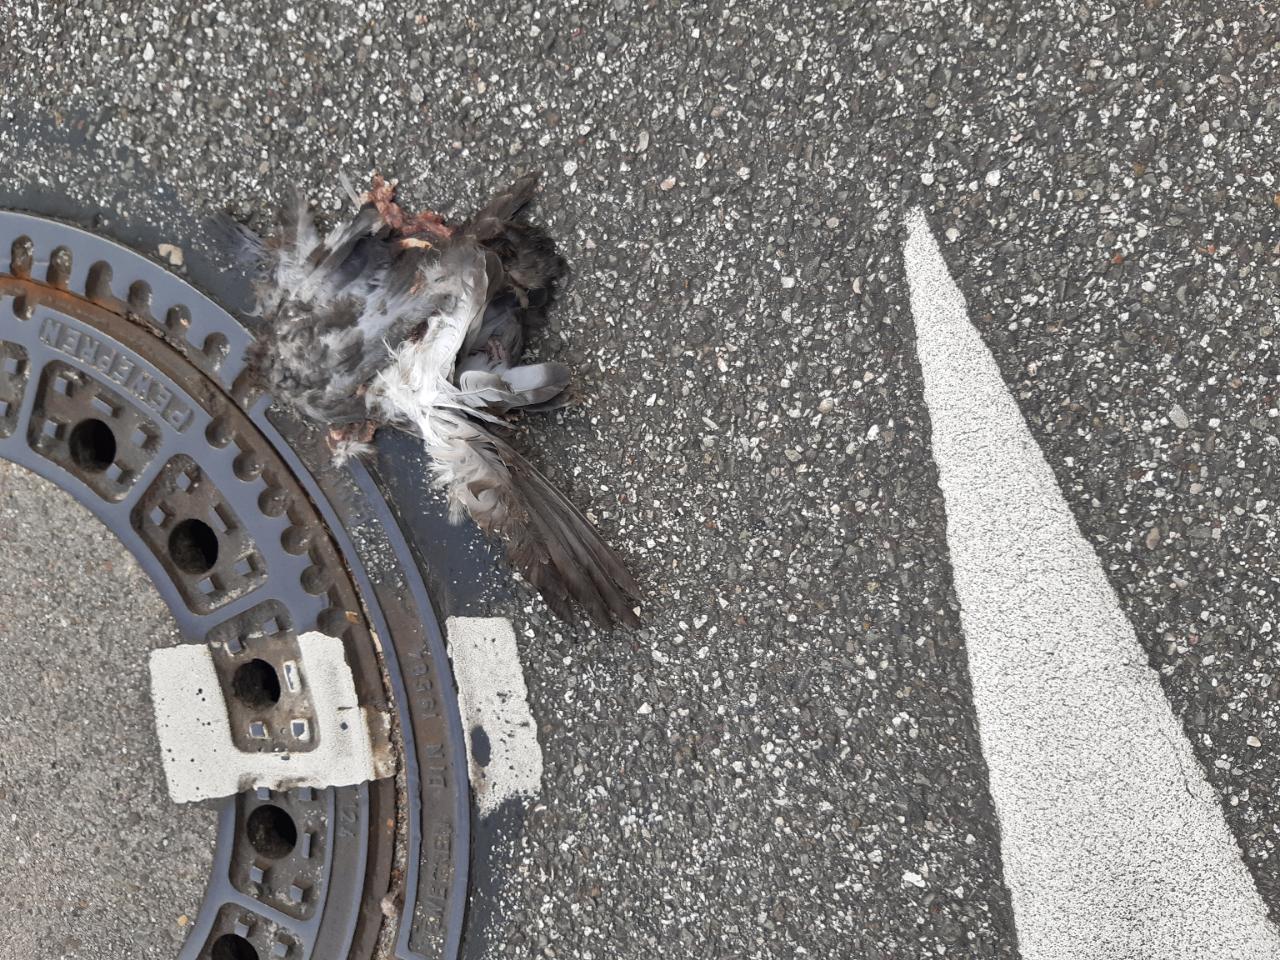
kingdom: Animalia
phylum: Chordata
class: Aves
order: Columbiformes
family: Columbidae
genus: Columba
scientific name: Columba livia
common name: Rock pigeon
